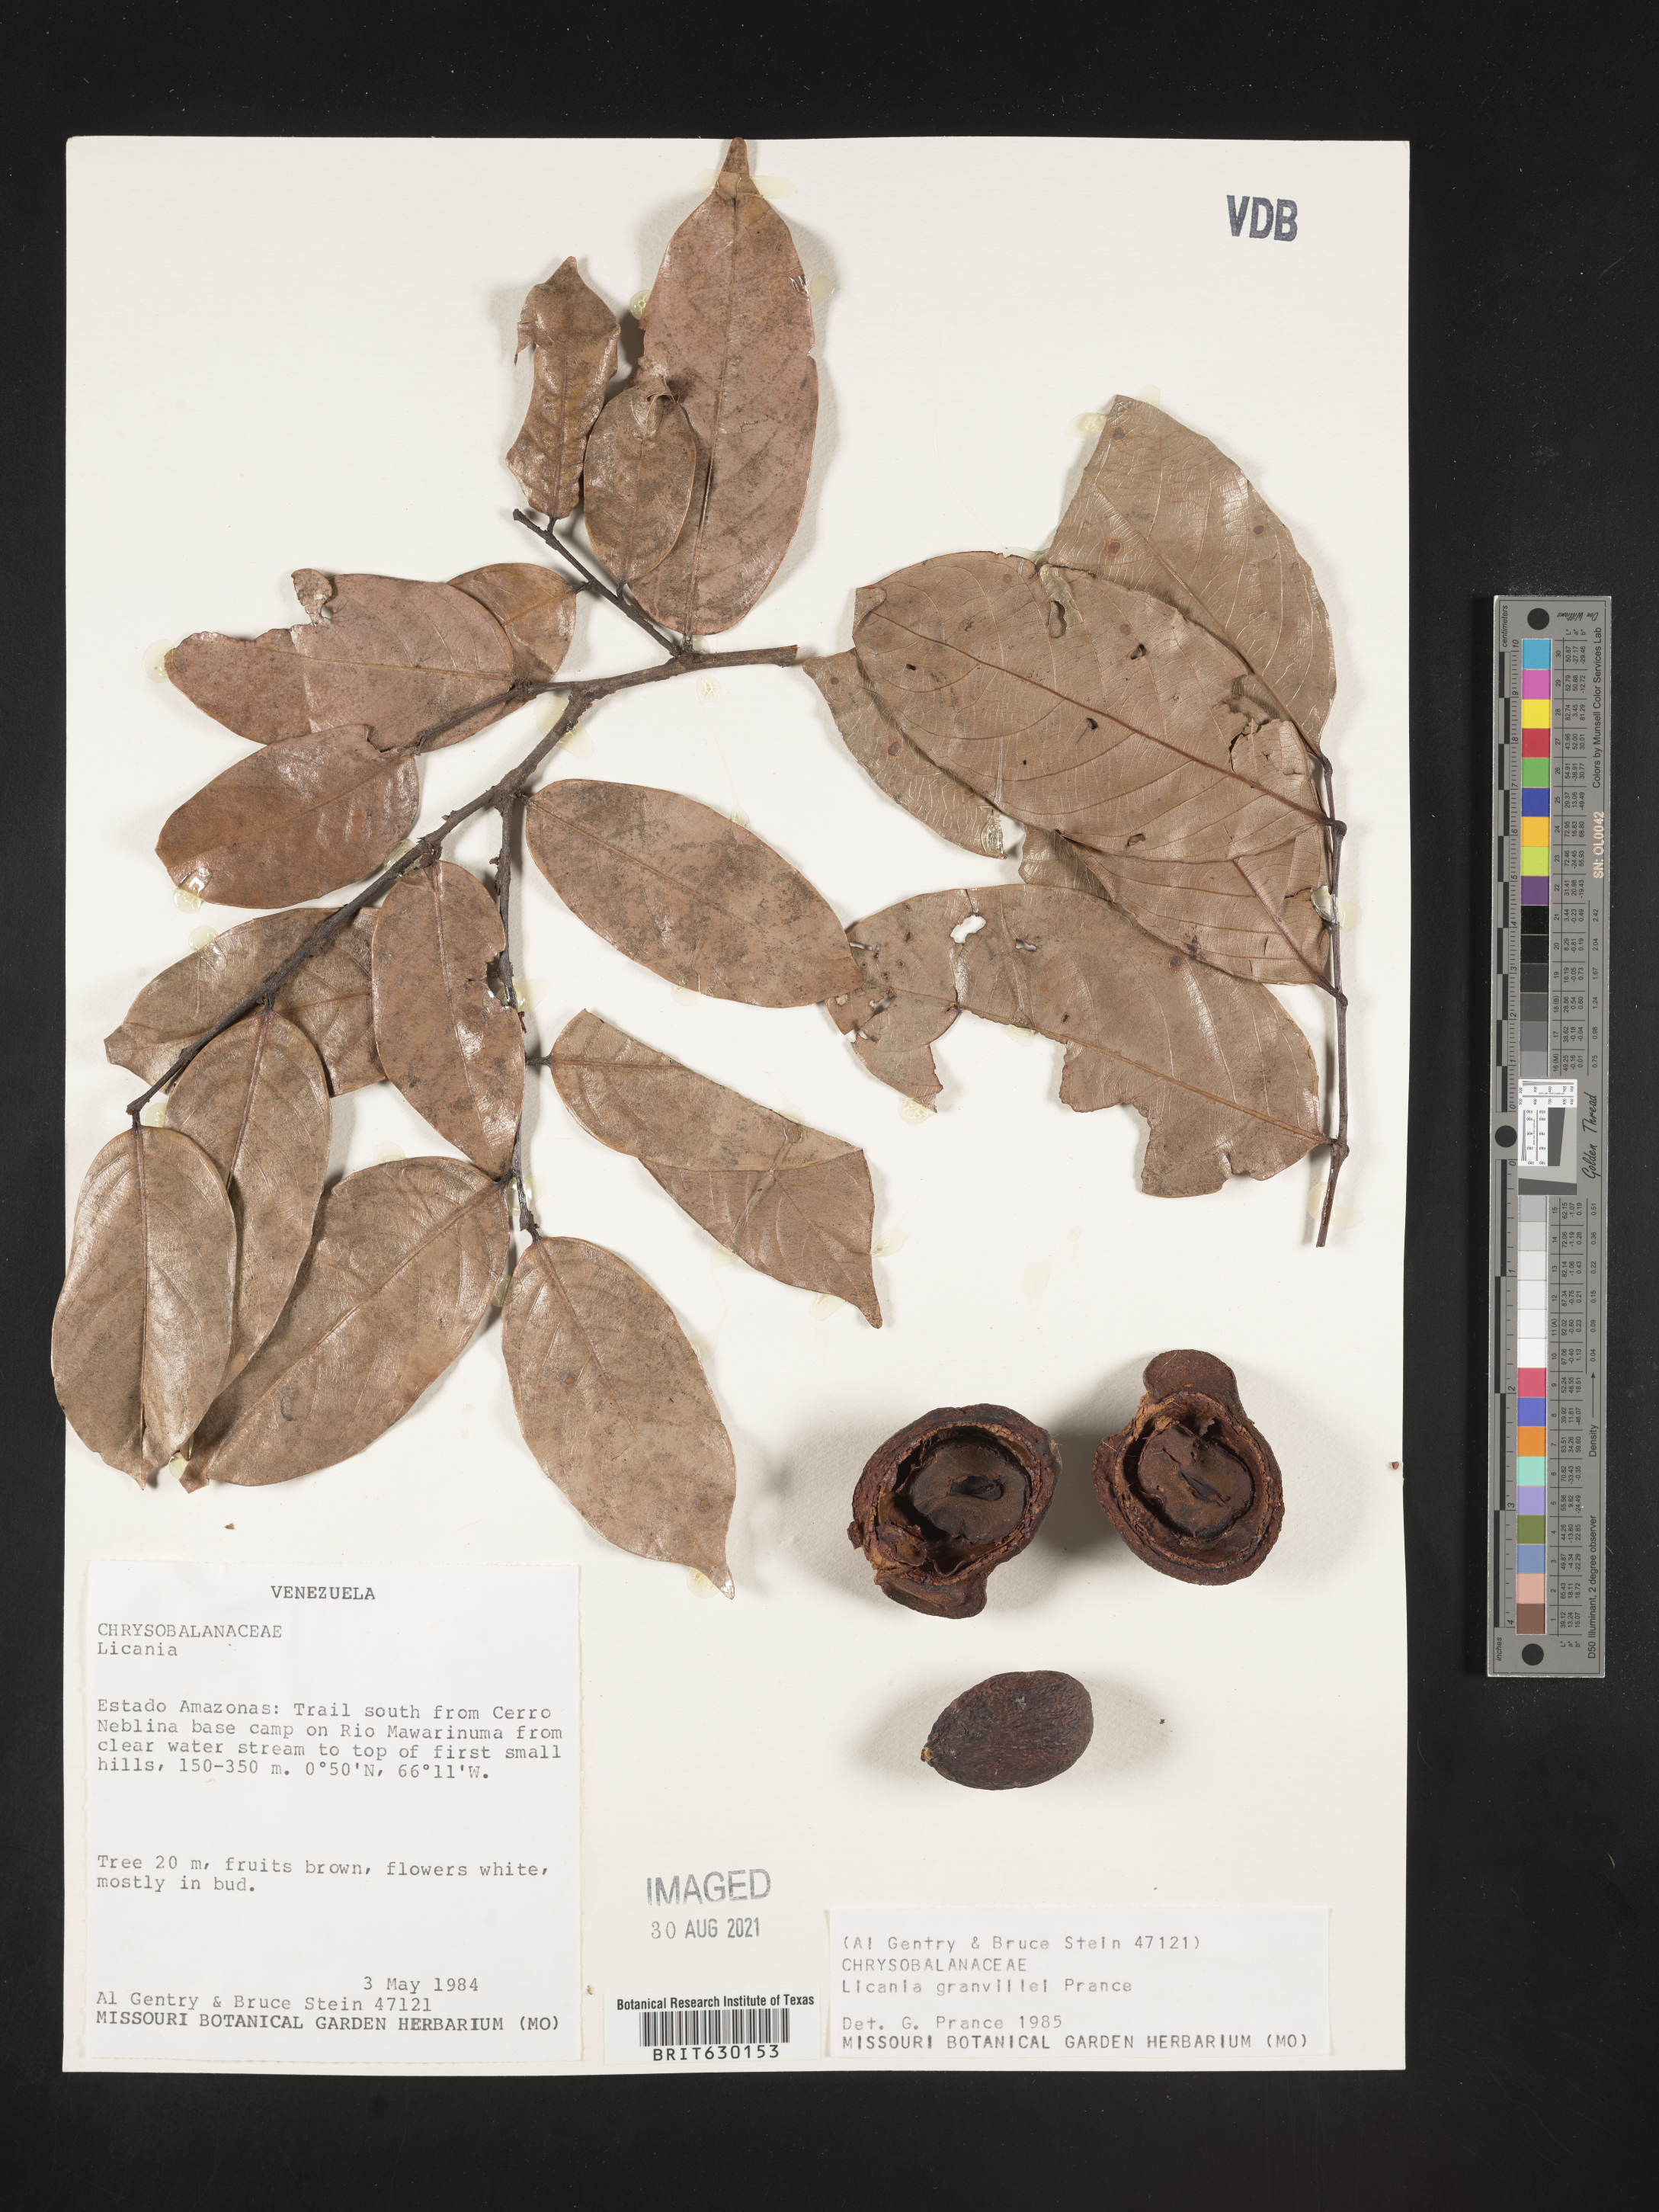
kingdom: Plantae
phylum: Tracheophyta
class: Magnoliopsida
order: Malpighiales
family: Chrysobalanaceae
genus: Leptobalanus
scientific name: Leptobalanus granvillei
